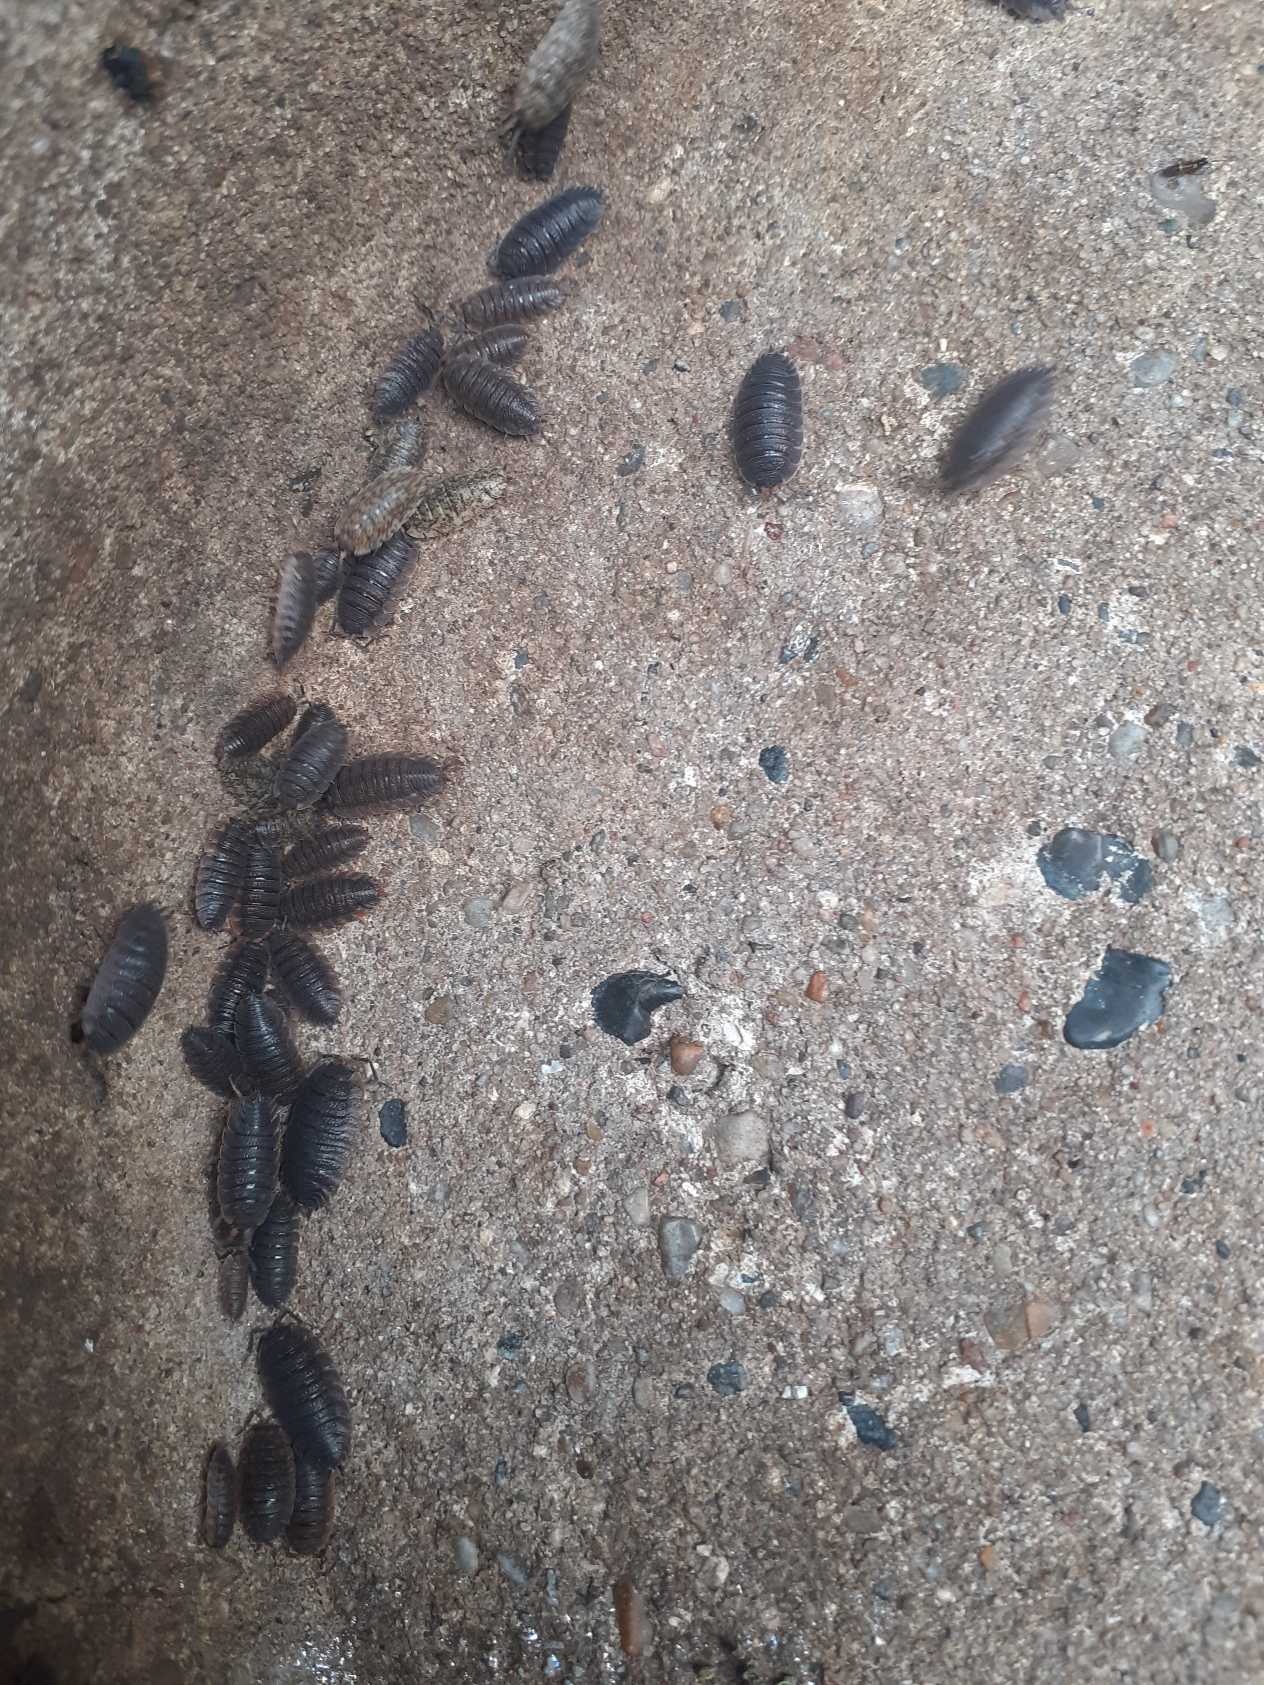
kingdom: Animalia
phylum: Arthropoda
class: Malacostraca
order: Isopoda
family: Porcellionidae
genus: Porcellio
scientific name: Porcellio scaber
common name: Grå bænkebider
